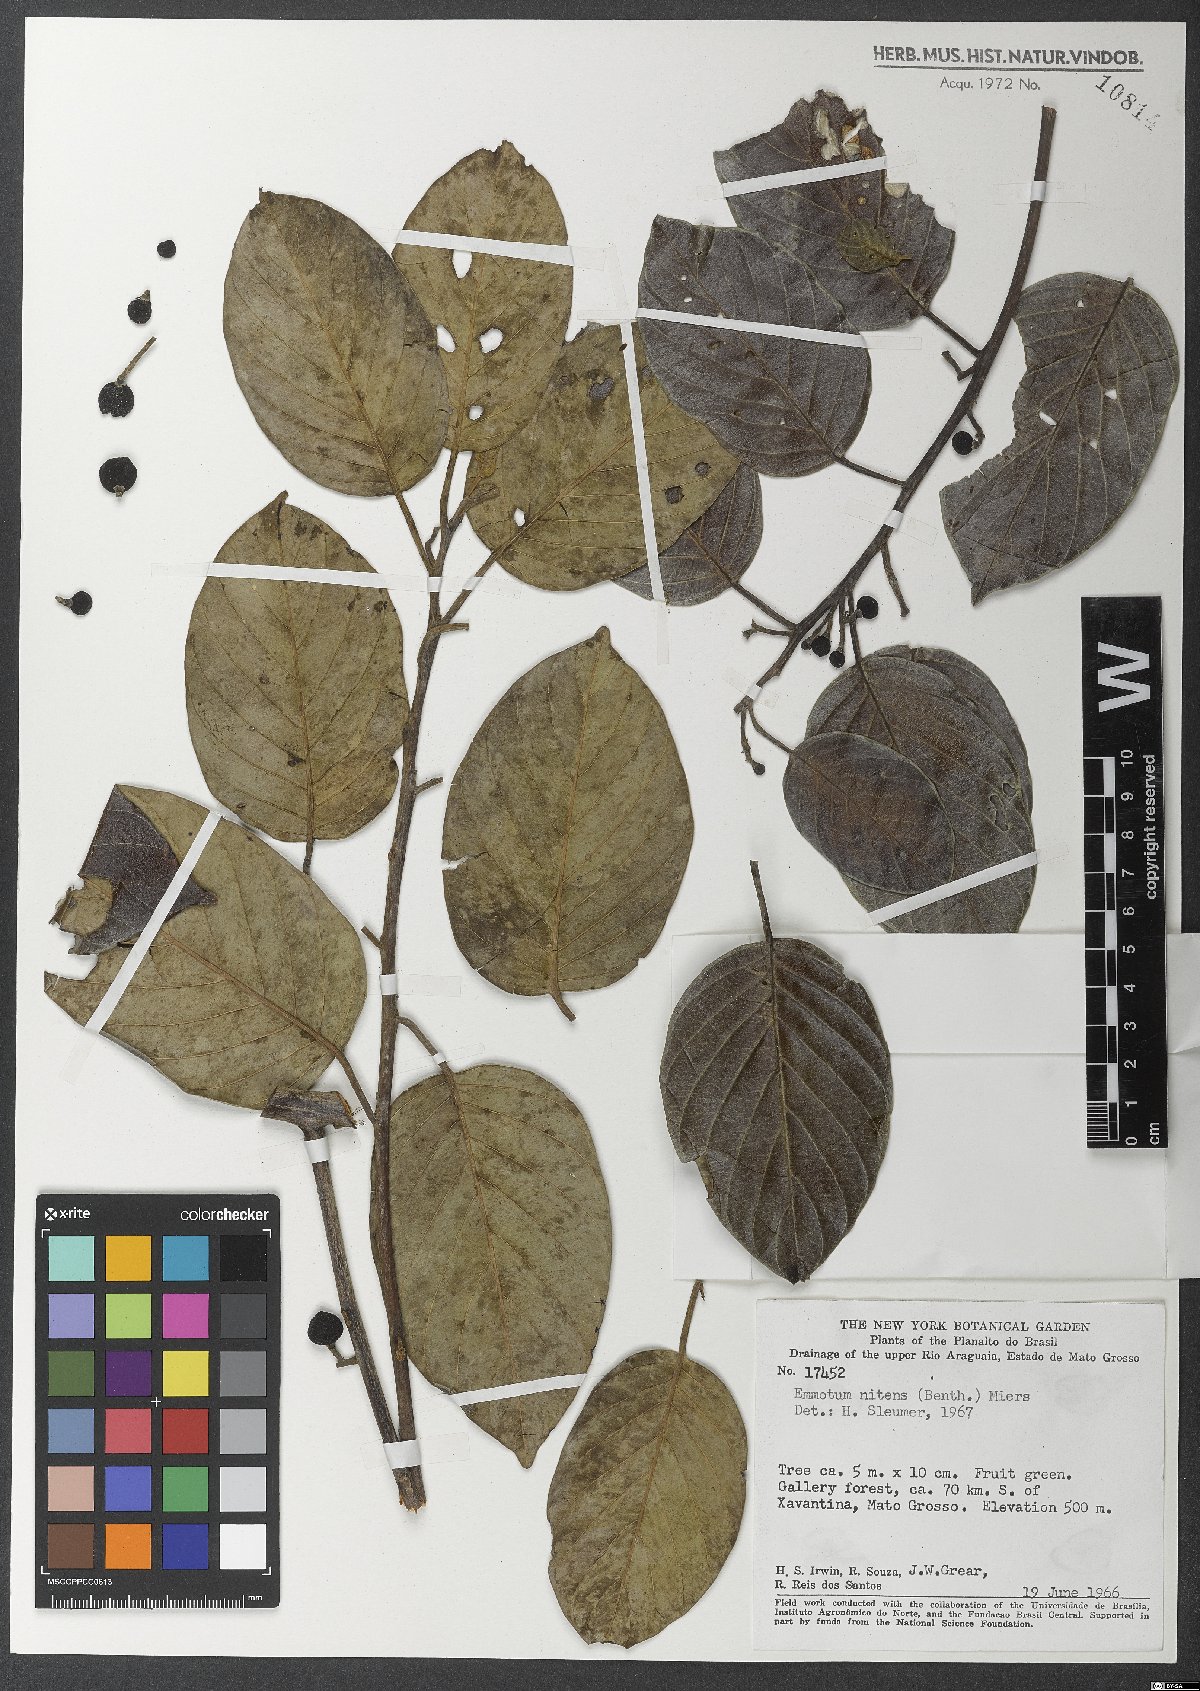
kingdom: Plantae
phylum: Tracheophyta
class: Magnoliopsida
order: Metteniusales
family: Metteniusaceae
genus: Emmotum
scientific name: Emmotum nitens
